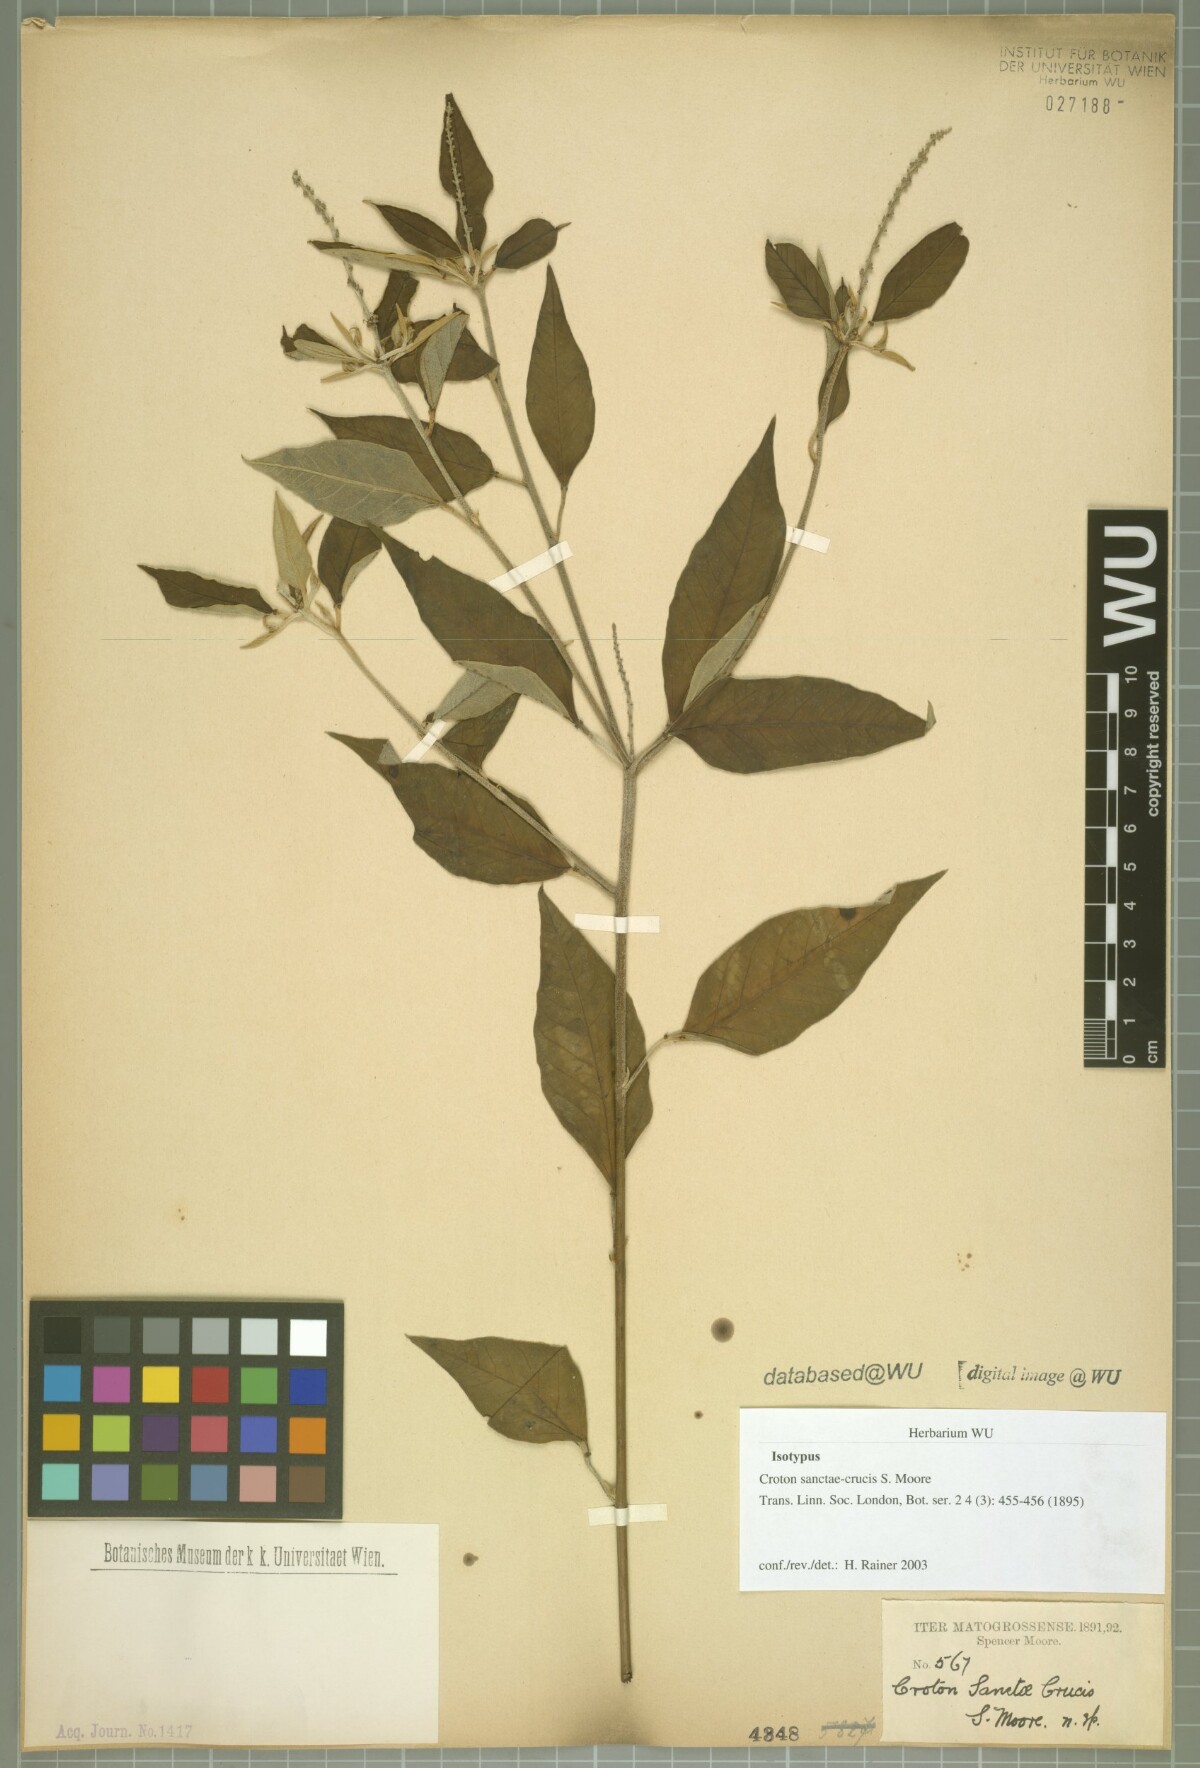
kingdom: Plantae
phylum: Tracheophyta
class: Magnoliopsida
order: Malpighiales
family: Euphorbiaceae
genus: Croton
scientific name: Croton sanctae-crucis
